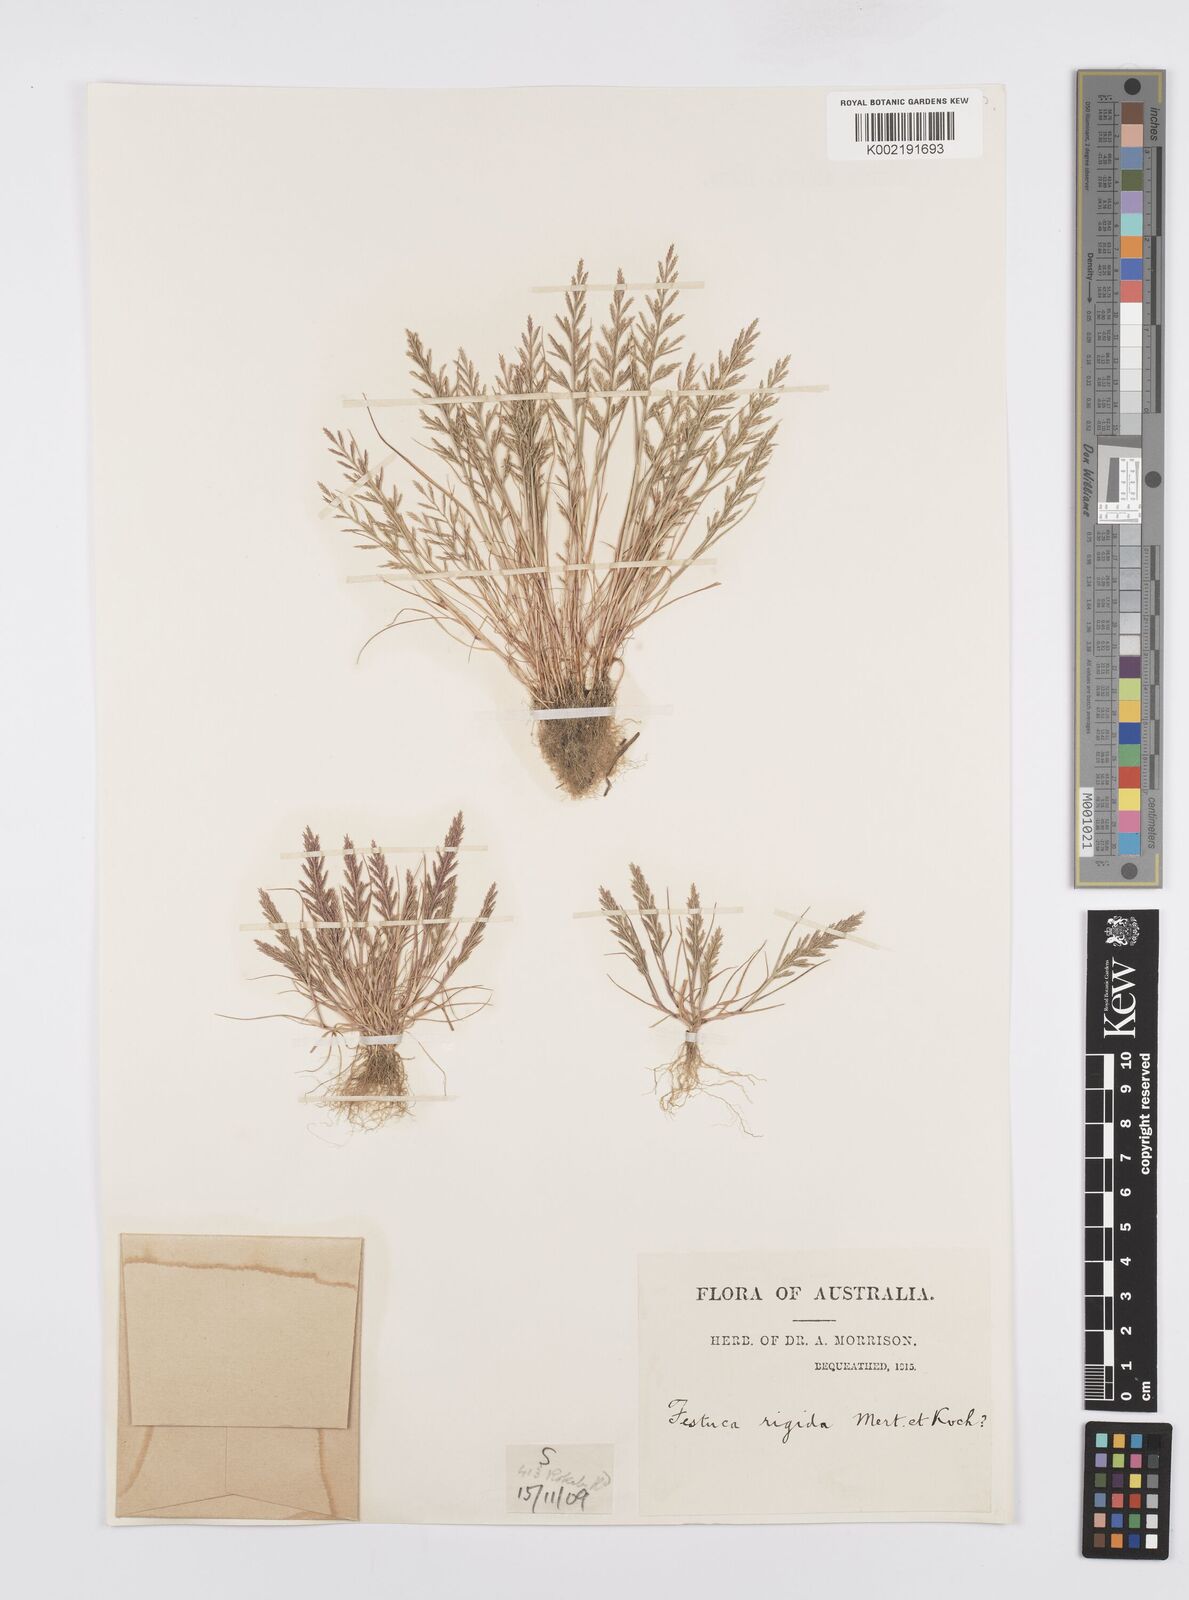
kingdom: Plantae
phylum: Tracheophyta
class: Liliopsida
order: Poales
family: Poaceae
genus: Catapodium
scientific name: Catapodium rigidum
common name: Fern-grass
